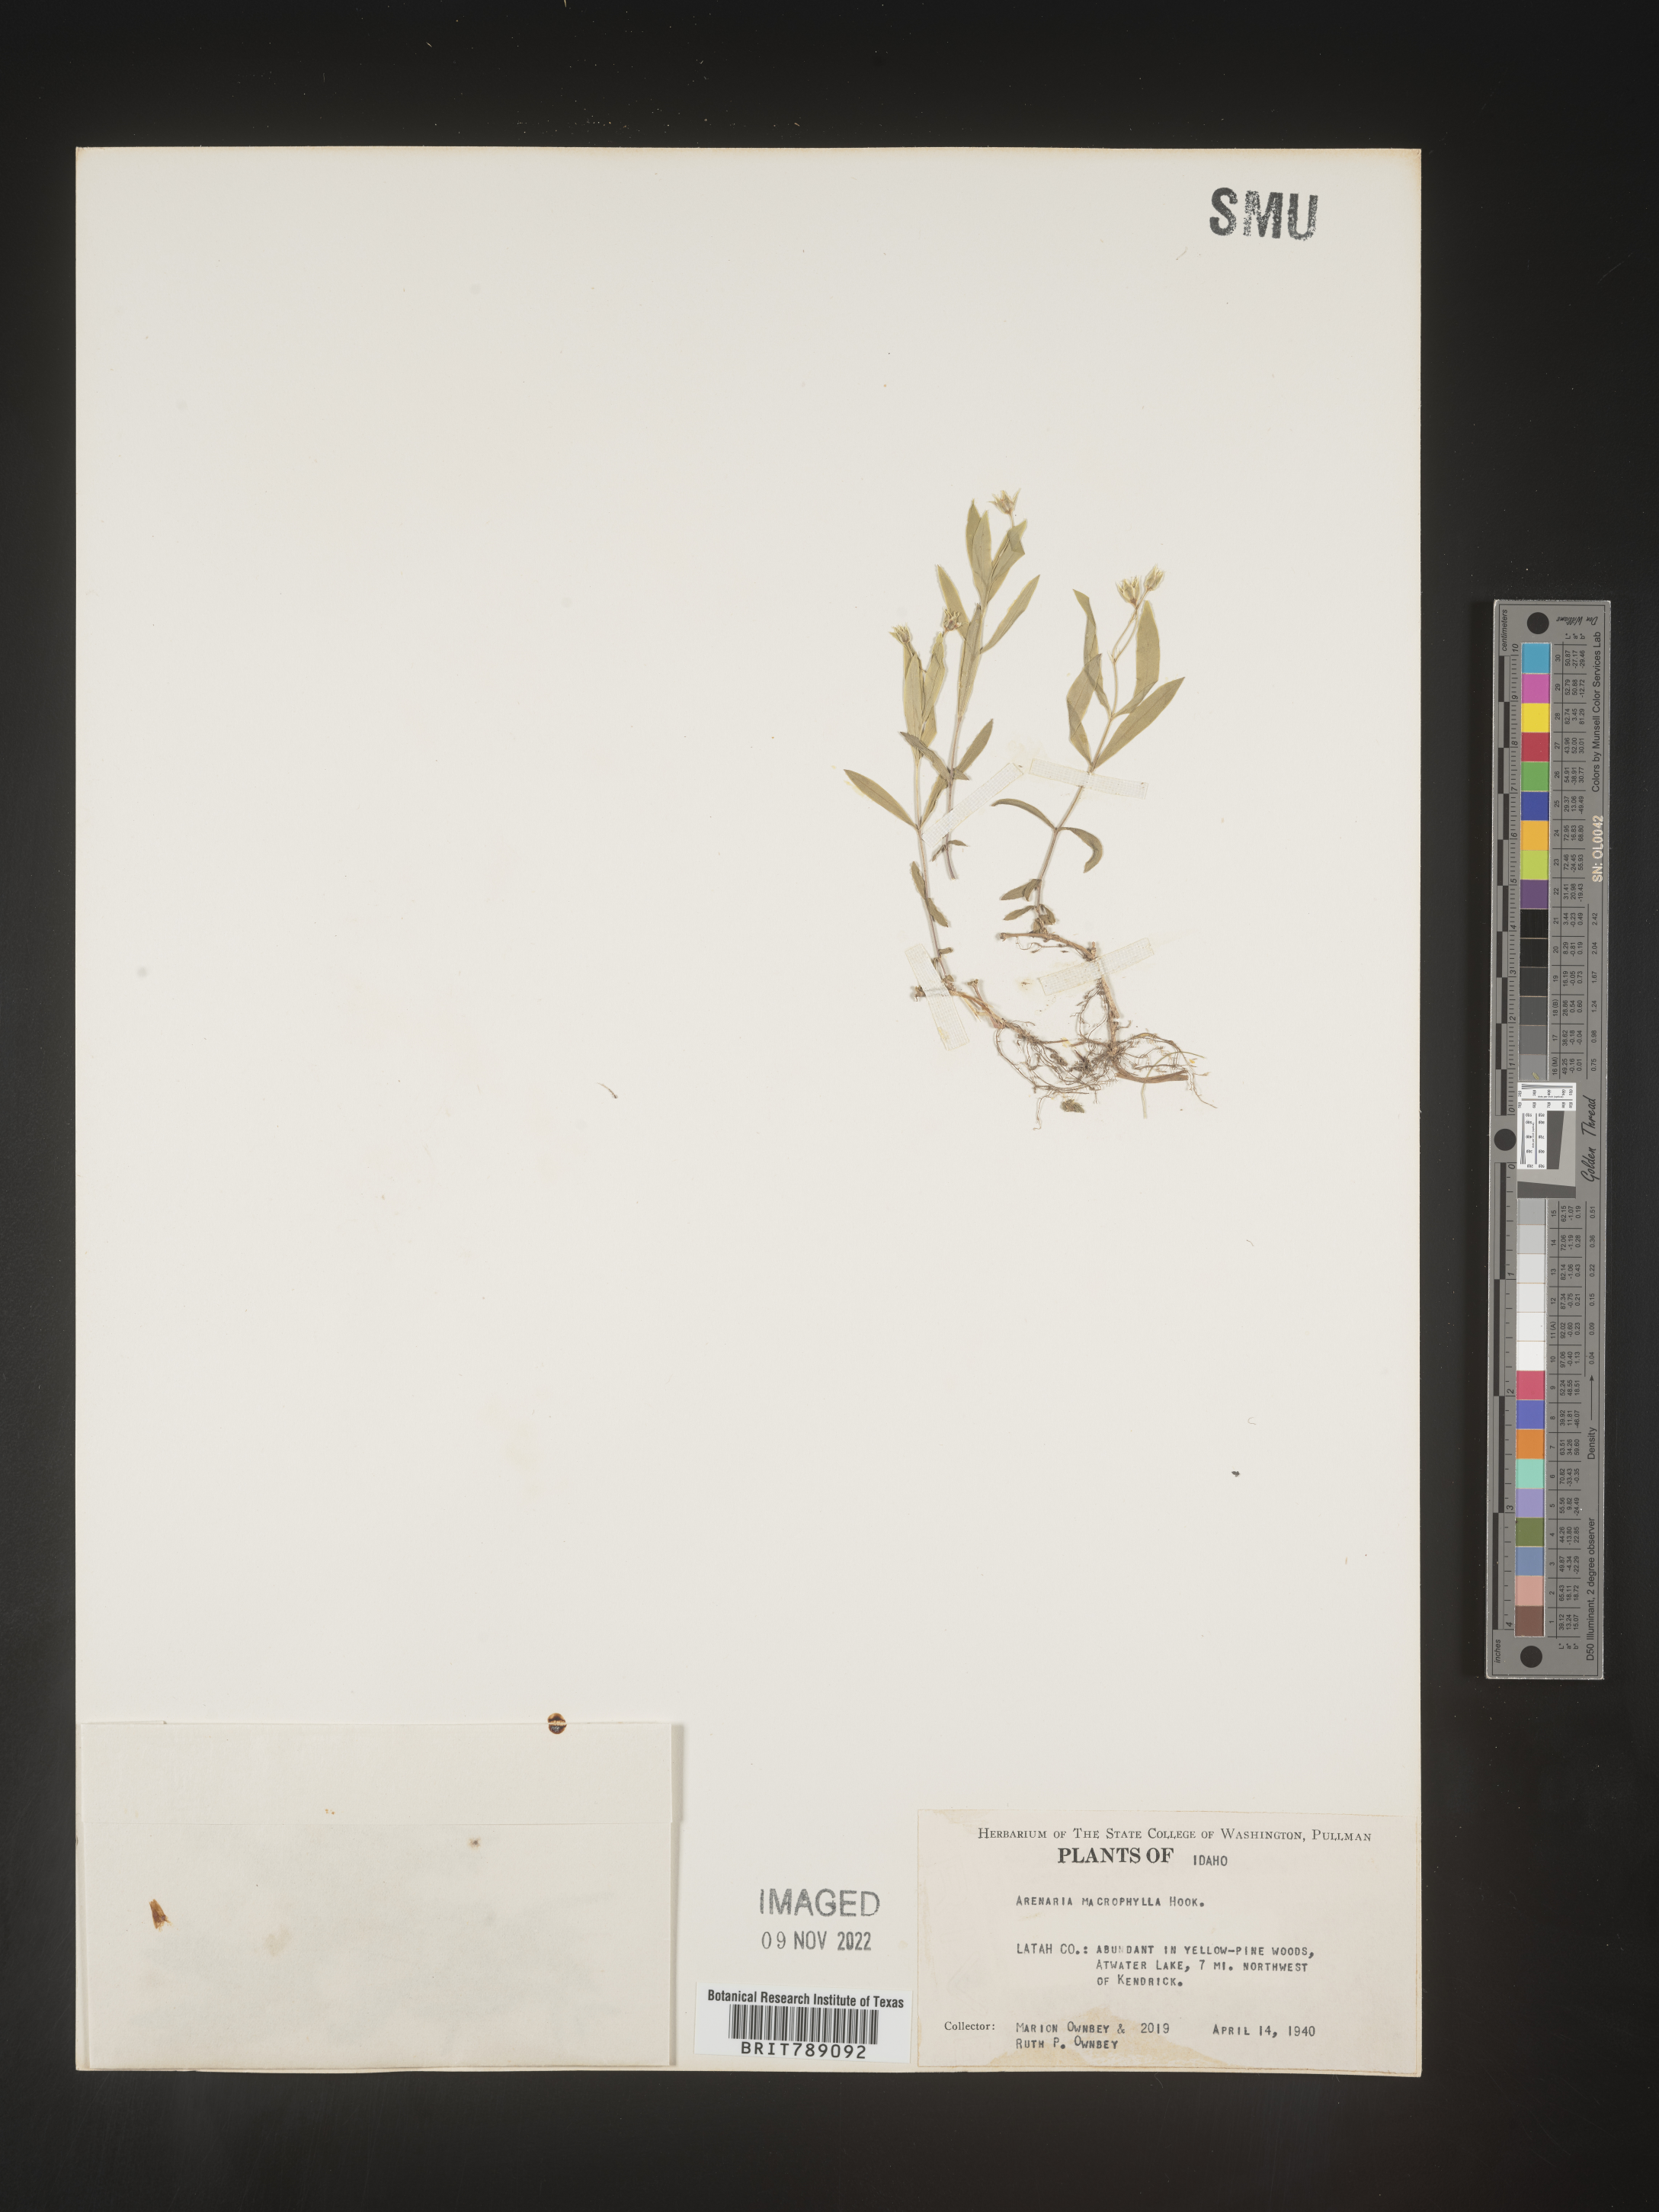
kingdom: Plantae
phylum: Tracheophyta
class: Magnoliopsida
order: Caryophyllales
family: Caryophyllaceae
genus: Arenaria
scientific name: Arenaria
